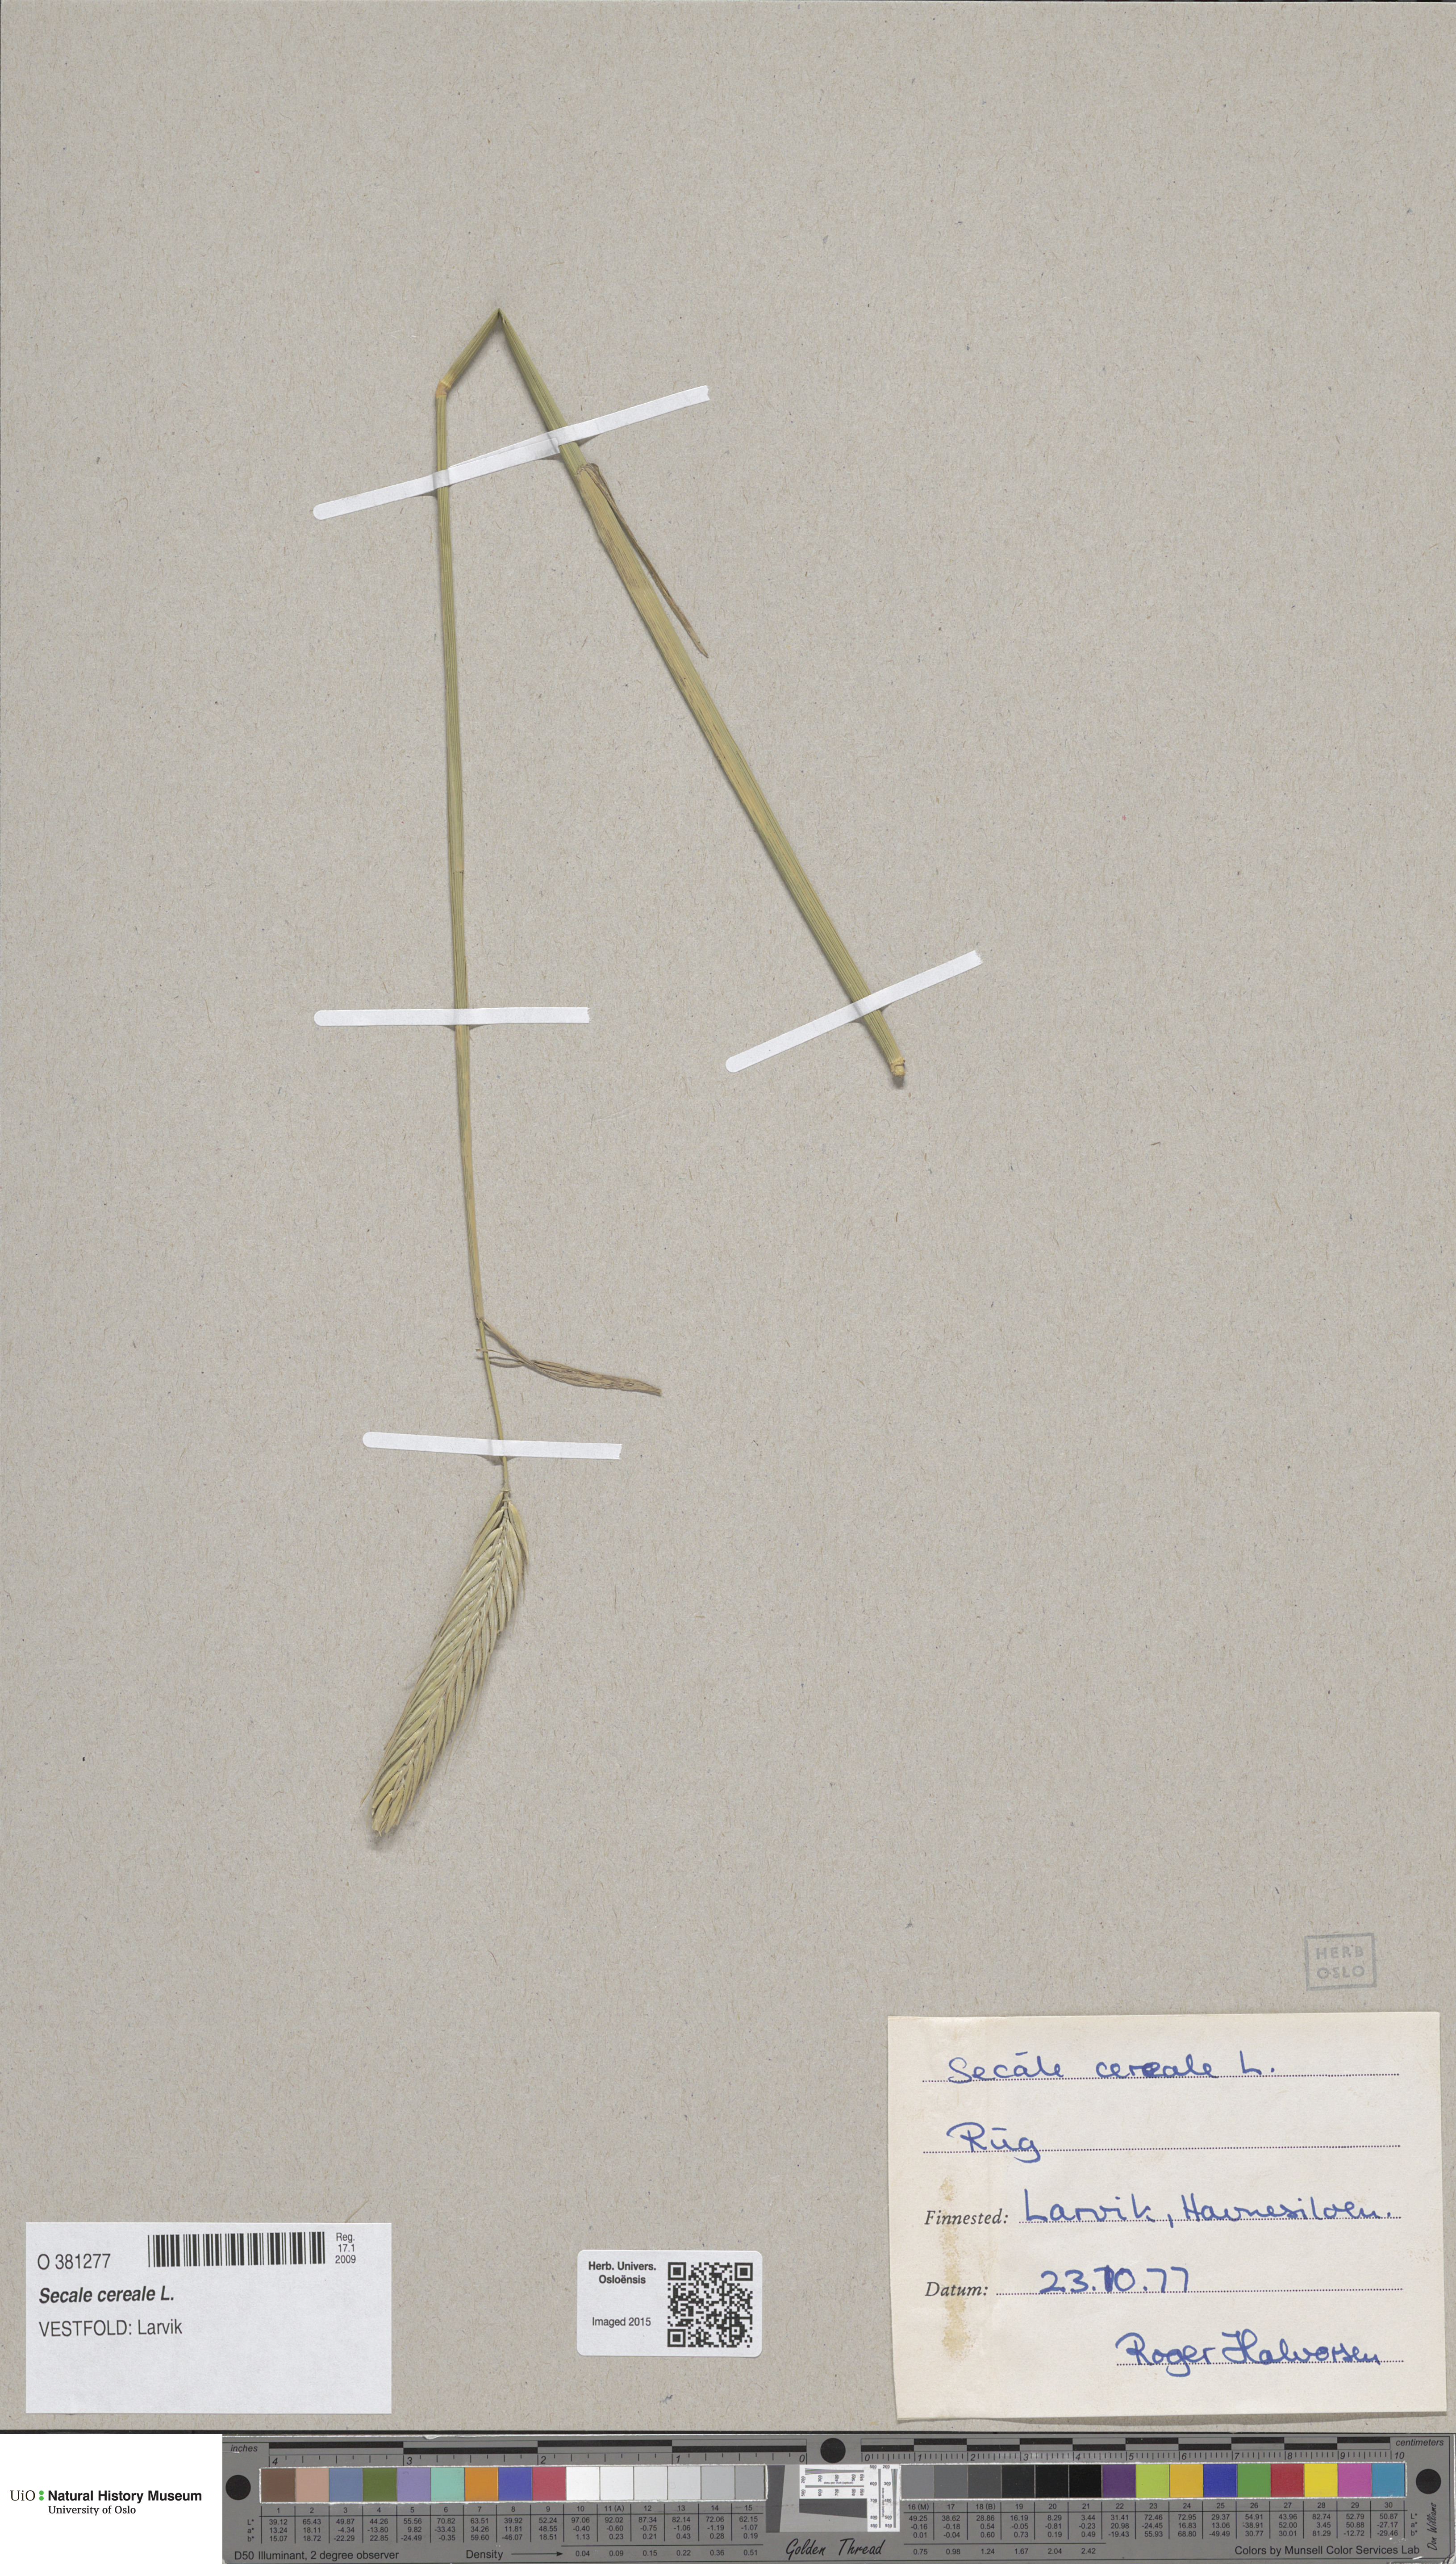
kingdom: Plantae
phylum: Tracheophyta
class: Liliopsida
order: Poales
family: Poaceae
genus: Secale
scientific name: Secale cereale
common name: Rye
